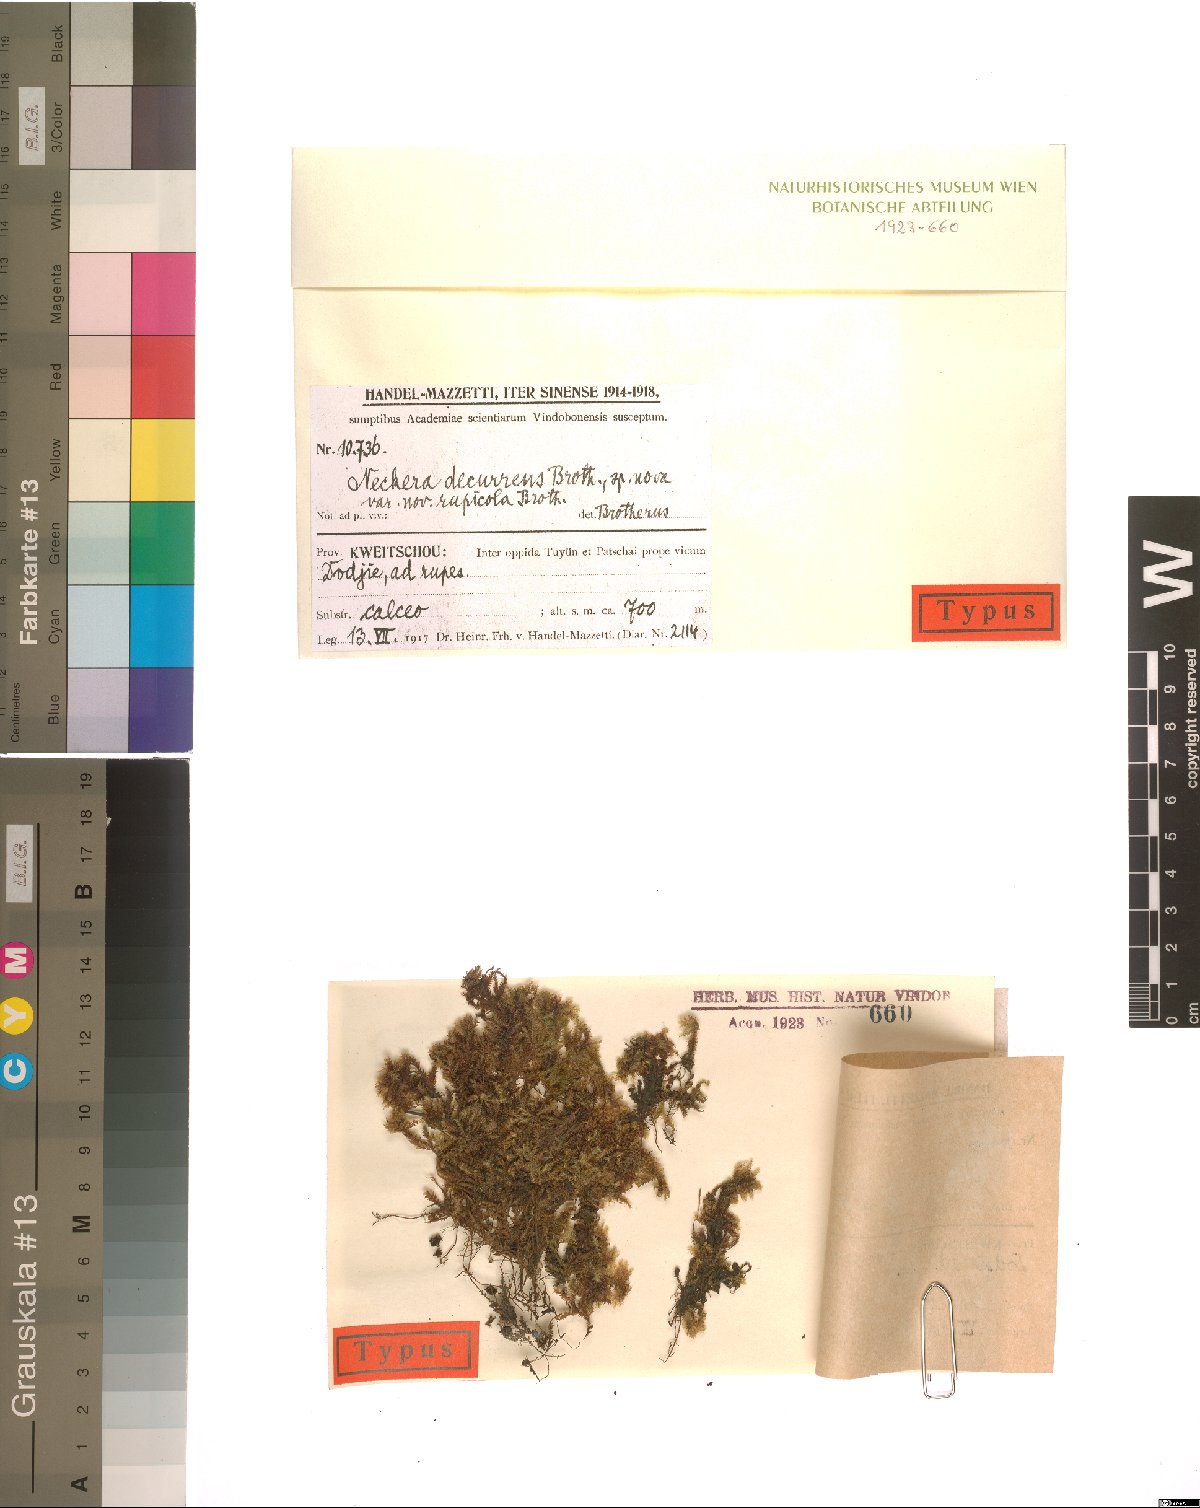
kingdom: Plantae
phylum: Bryophyta
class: Bryopsida
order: Hypnales
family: Neckeraceae
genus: Forsstroemia
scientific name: Forsstroemia fauriei
